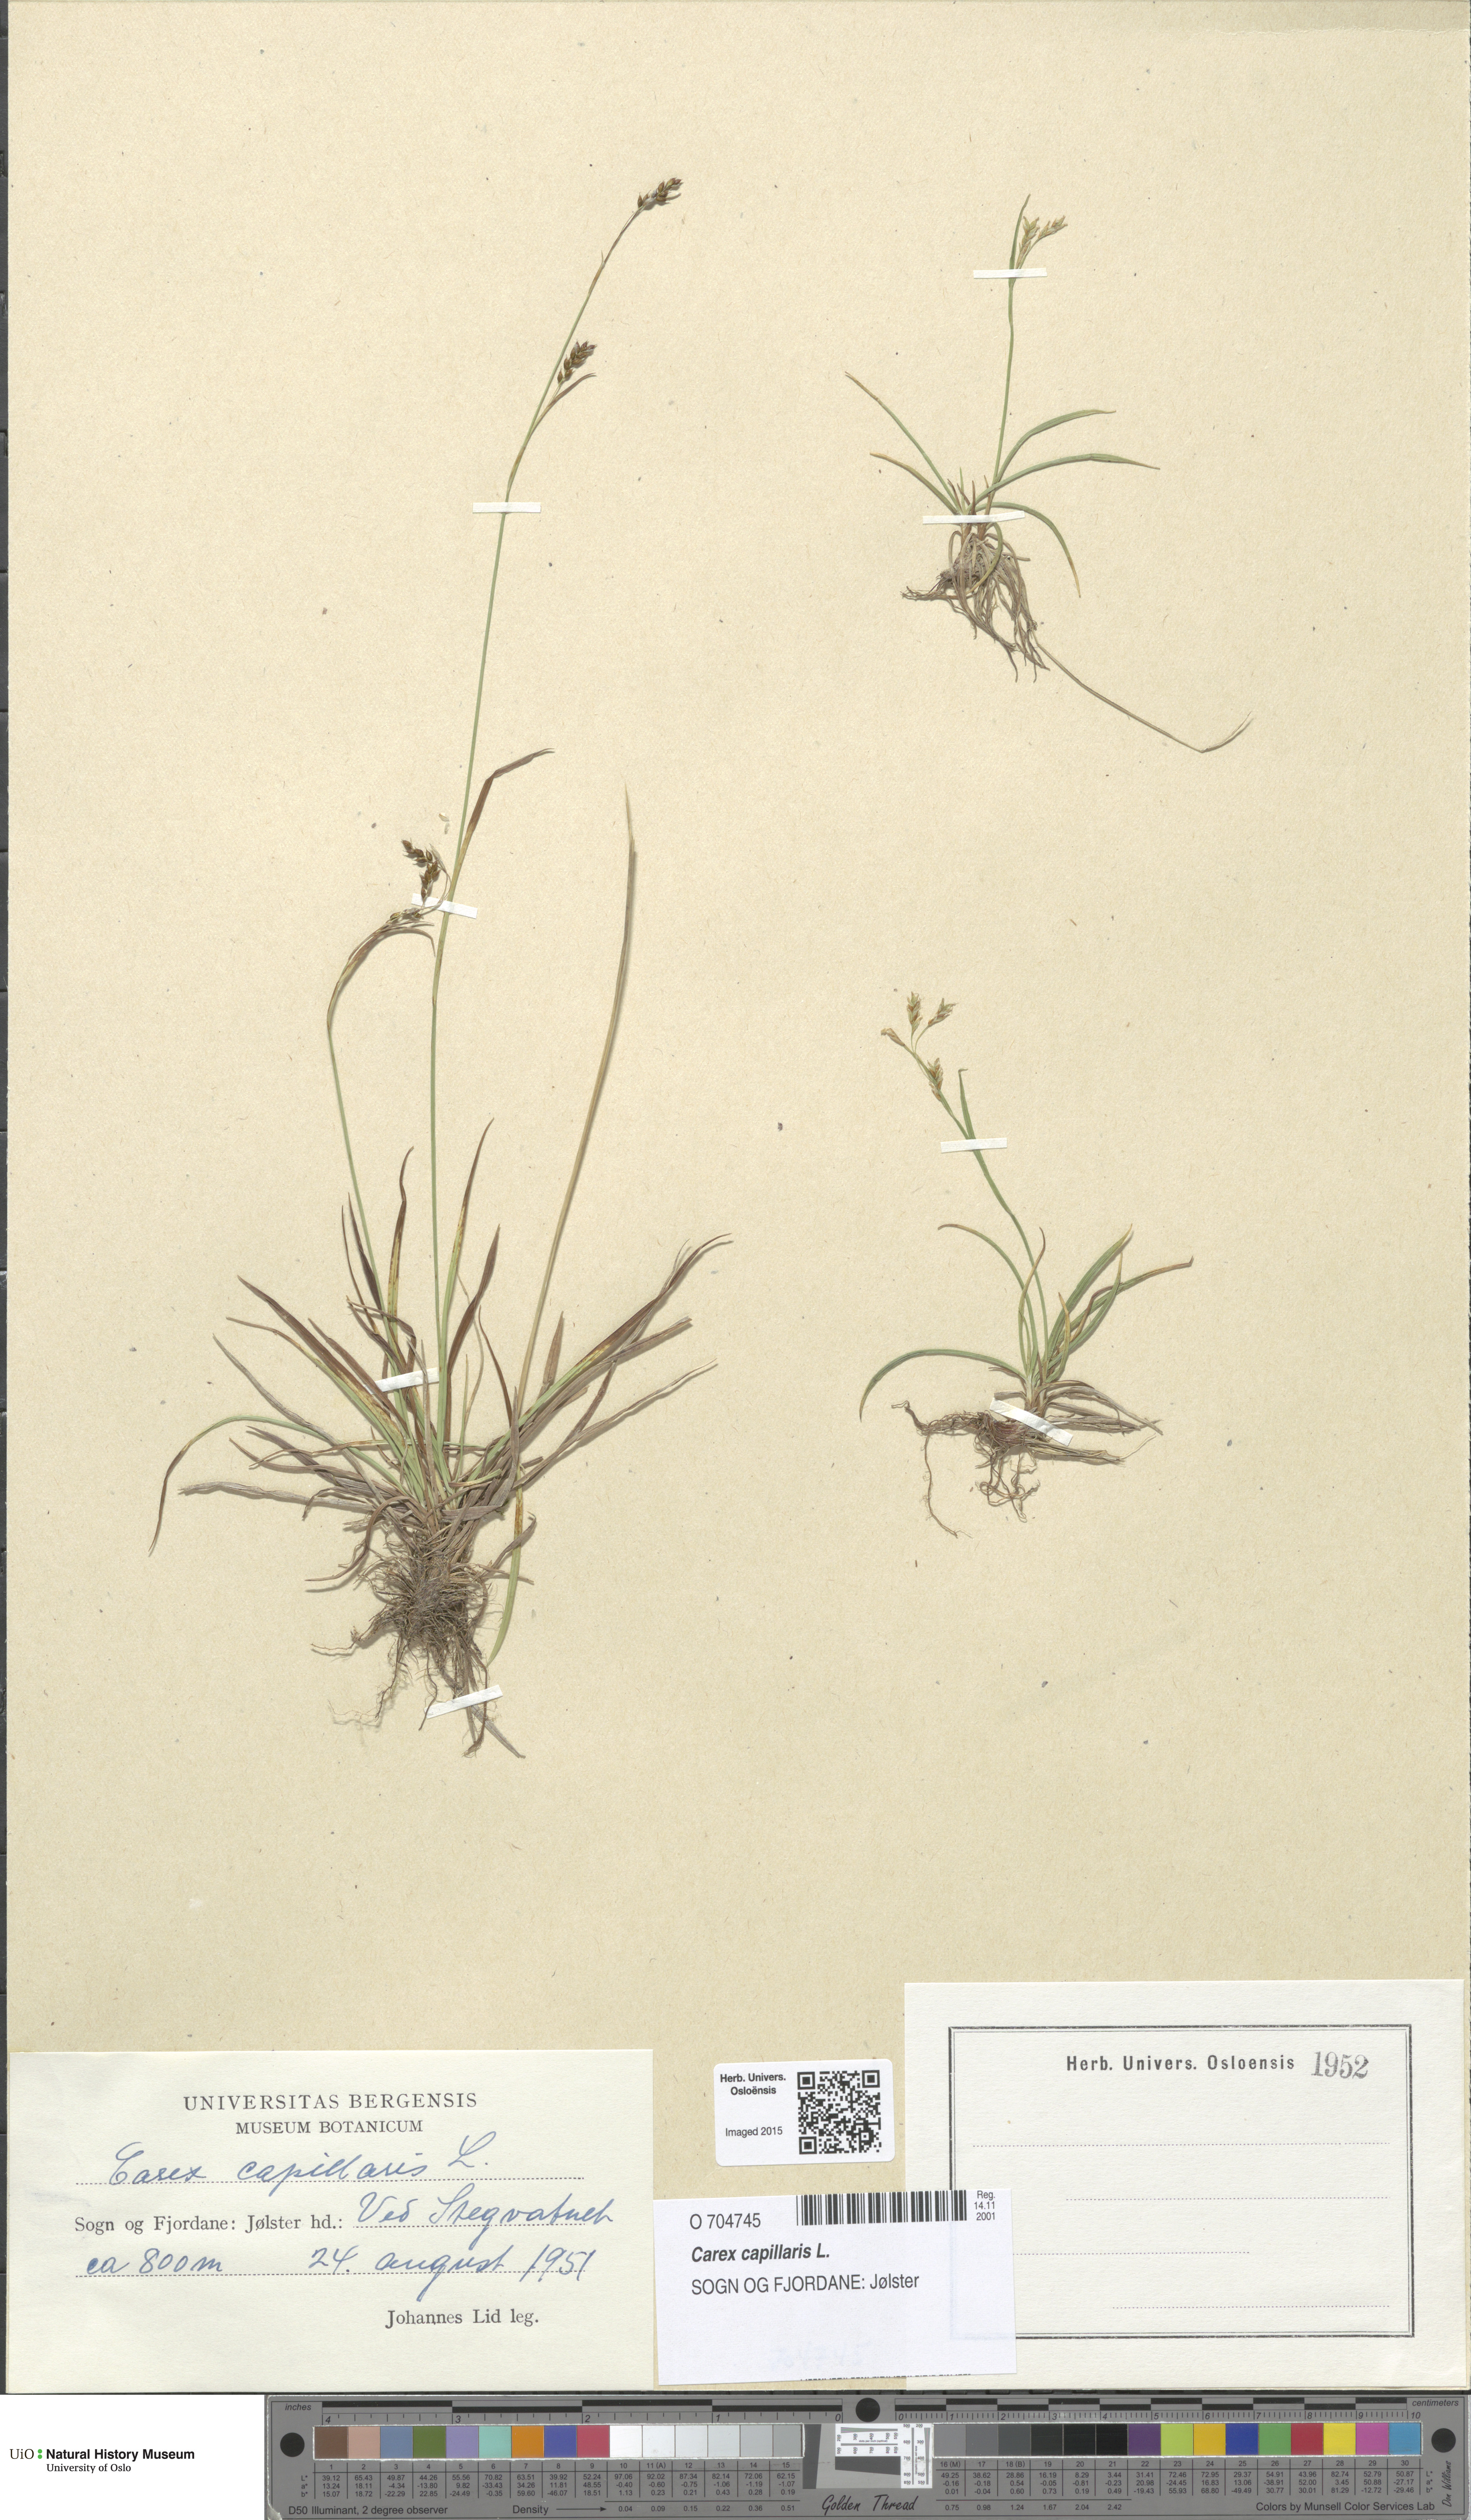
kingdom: Plantae
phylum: Tracheophyta
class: Liliopsida
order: Poales
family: Cyperaceae
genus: Carex
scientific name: Carex capillaris
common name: Hair sedge
